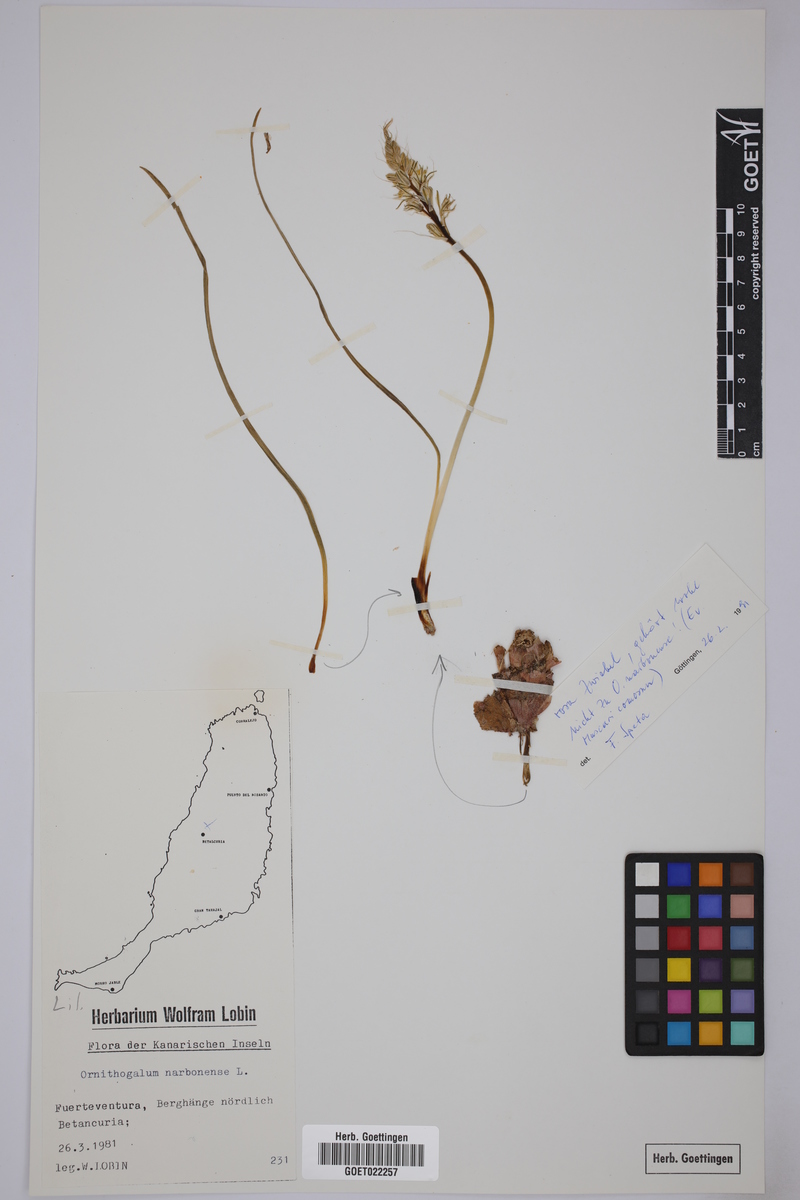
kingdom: Plantae
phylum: Tracheophyta
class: Liliopsida
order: Asparagales
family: Asparagaceae
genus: Ornithogalum
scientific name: Ornithogalum narbonense
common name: Bath-asparagus
